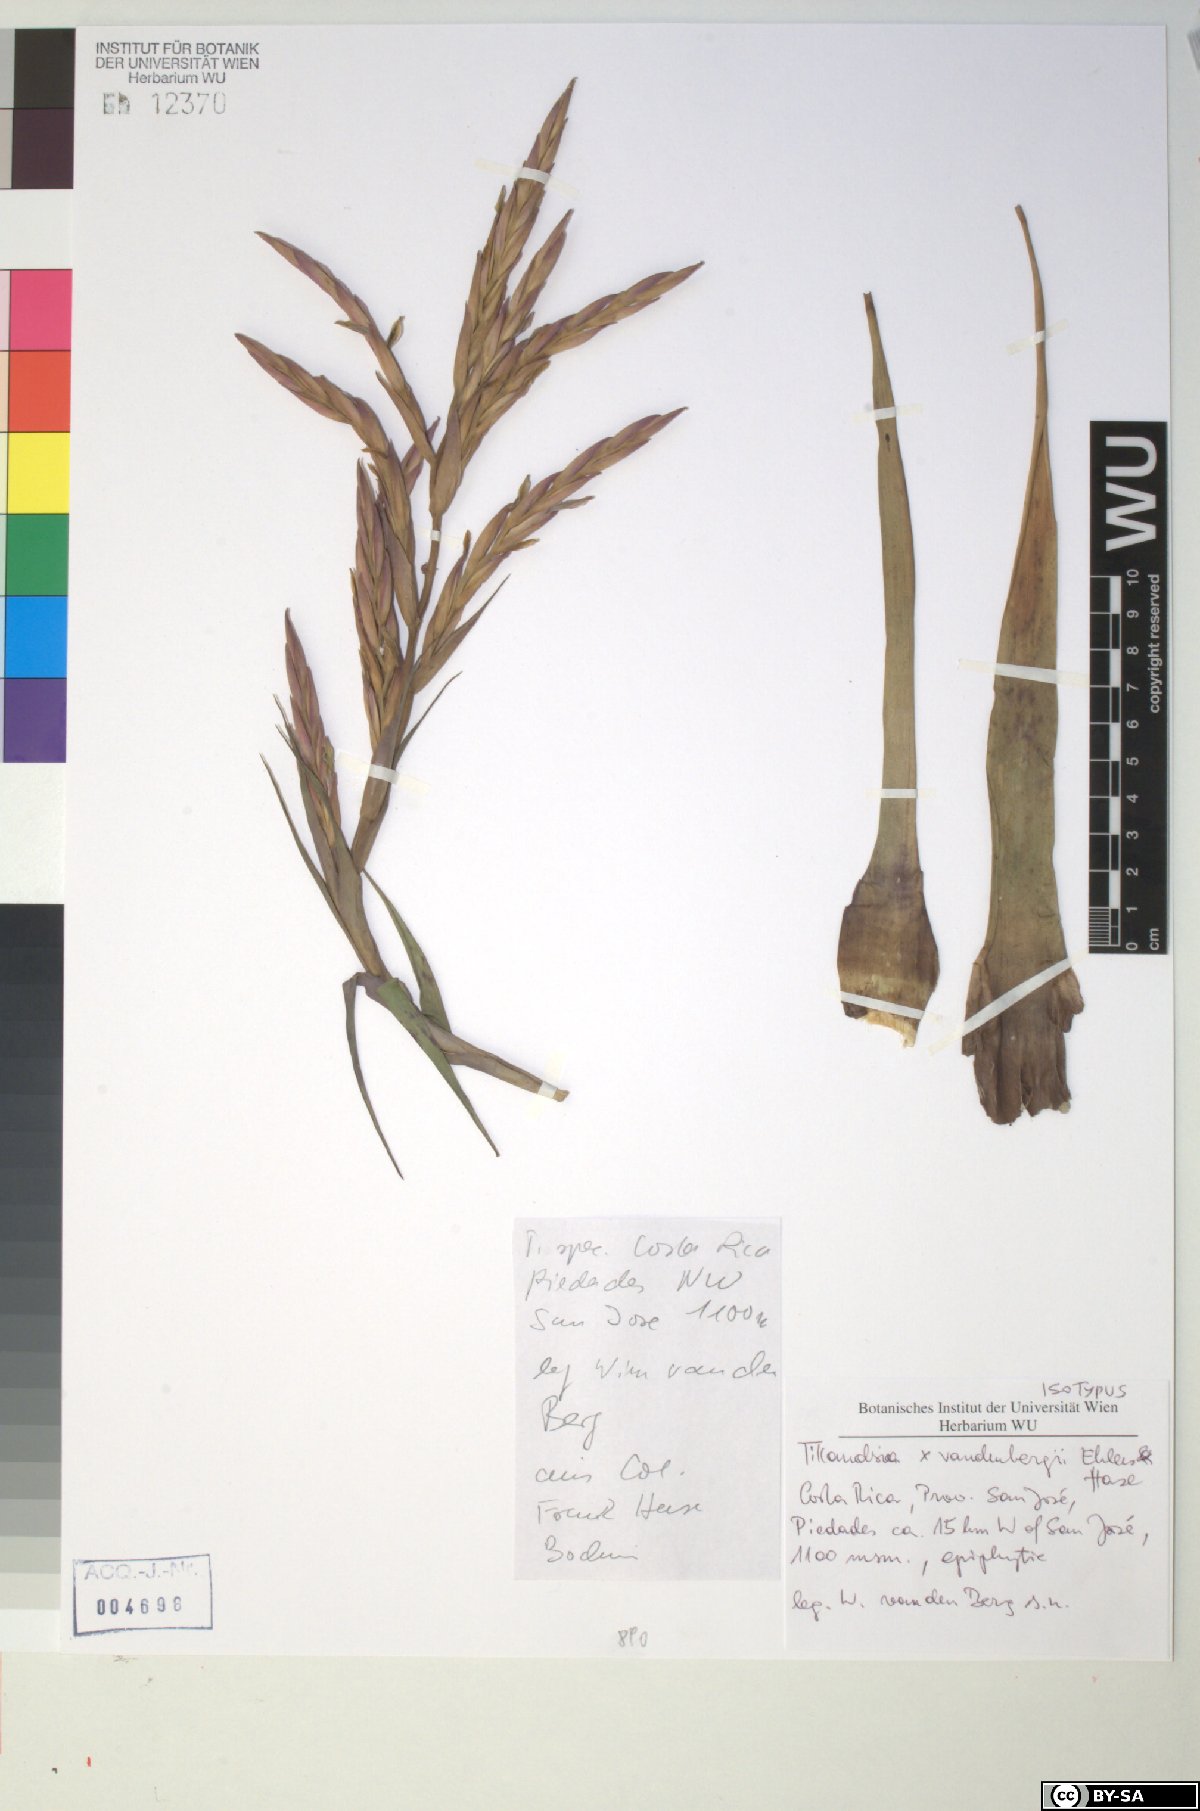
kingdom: Plantae
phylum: Tracheophyta
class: Liliopsida
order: Poales
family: Bromeliaceae
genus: Tillandsia
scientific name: Tillandsia vandenbergii
